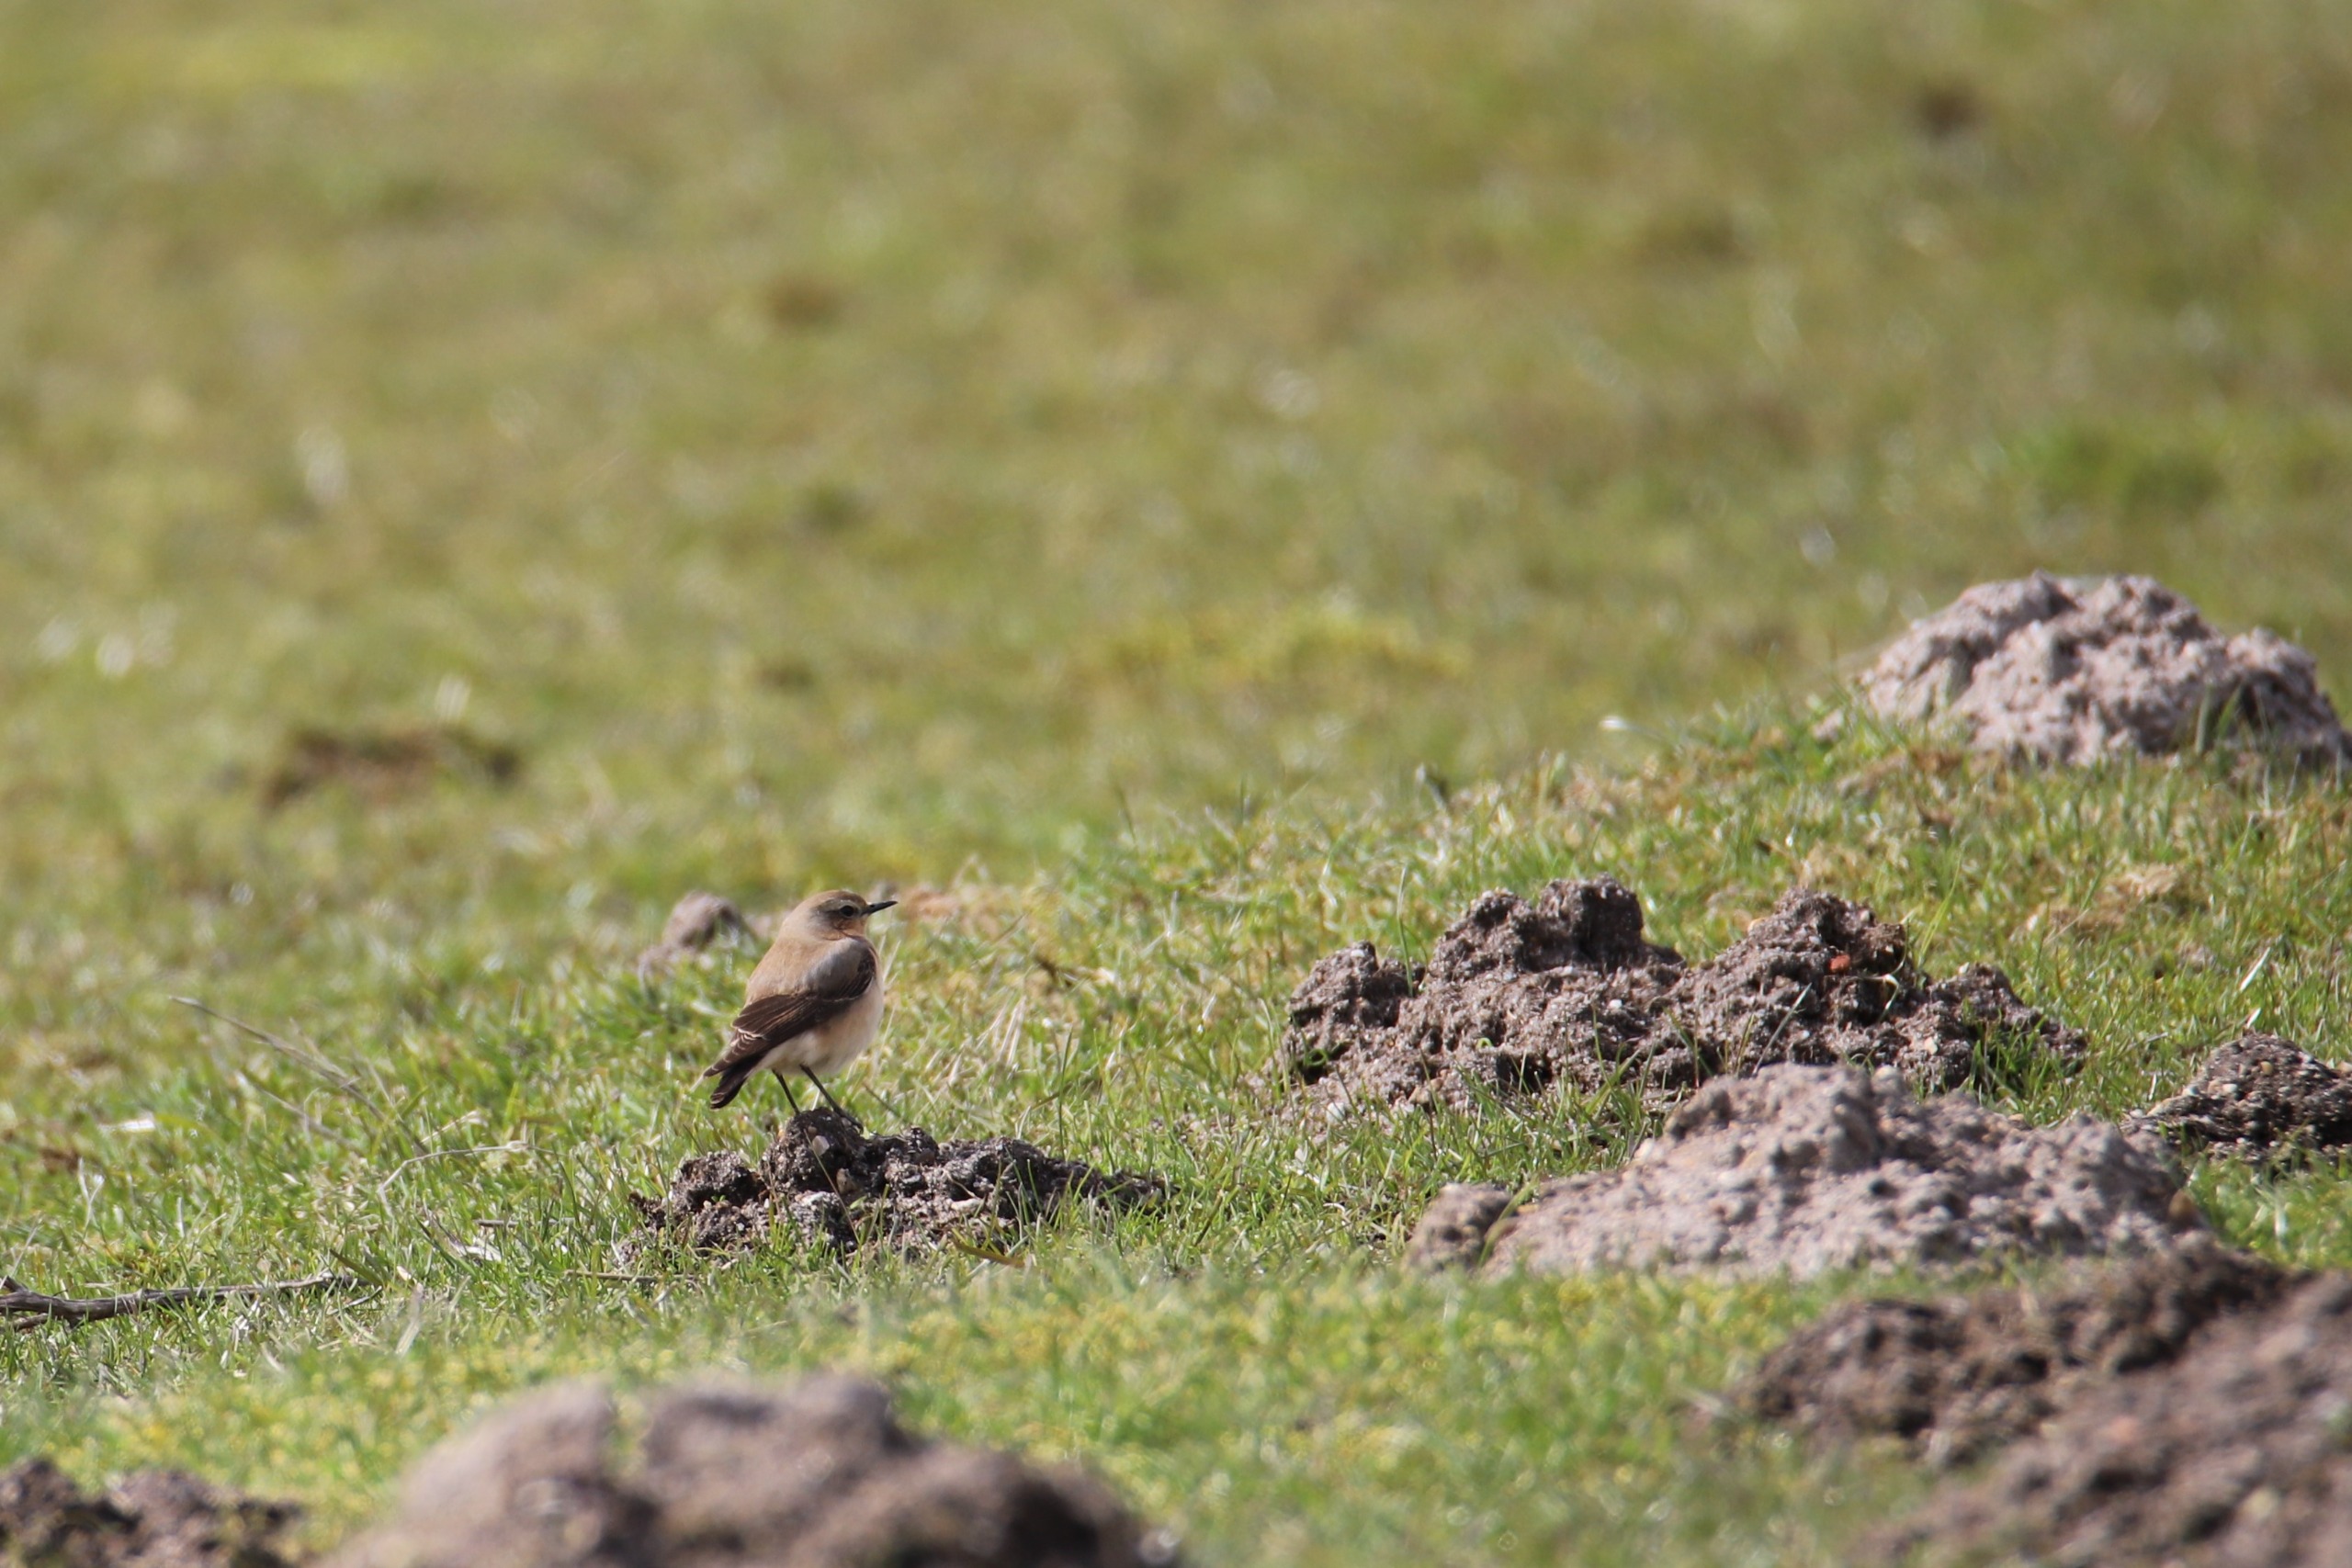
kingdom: Animalia
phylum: Chordata
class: Aves
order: Passeriformes
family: Muscicapidae
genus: Oenanthe
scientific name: Oenanthe oenanthe
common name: Stenpikker
